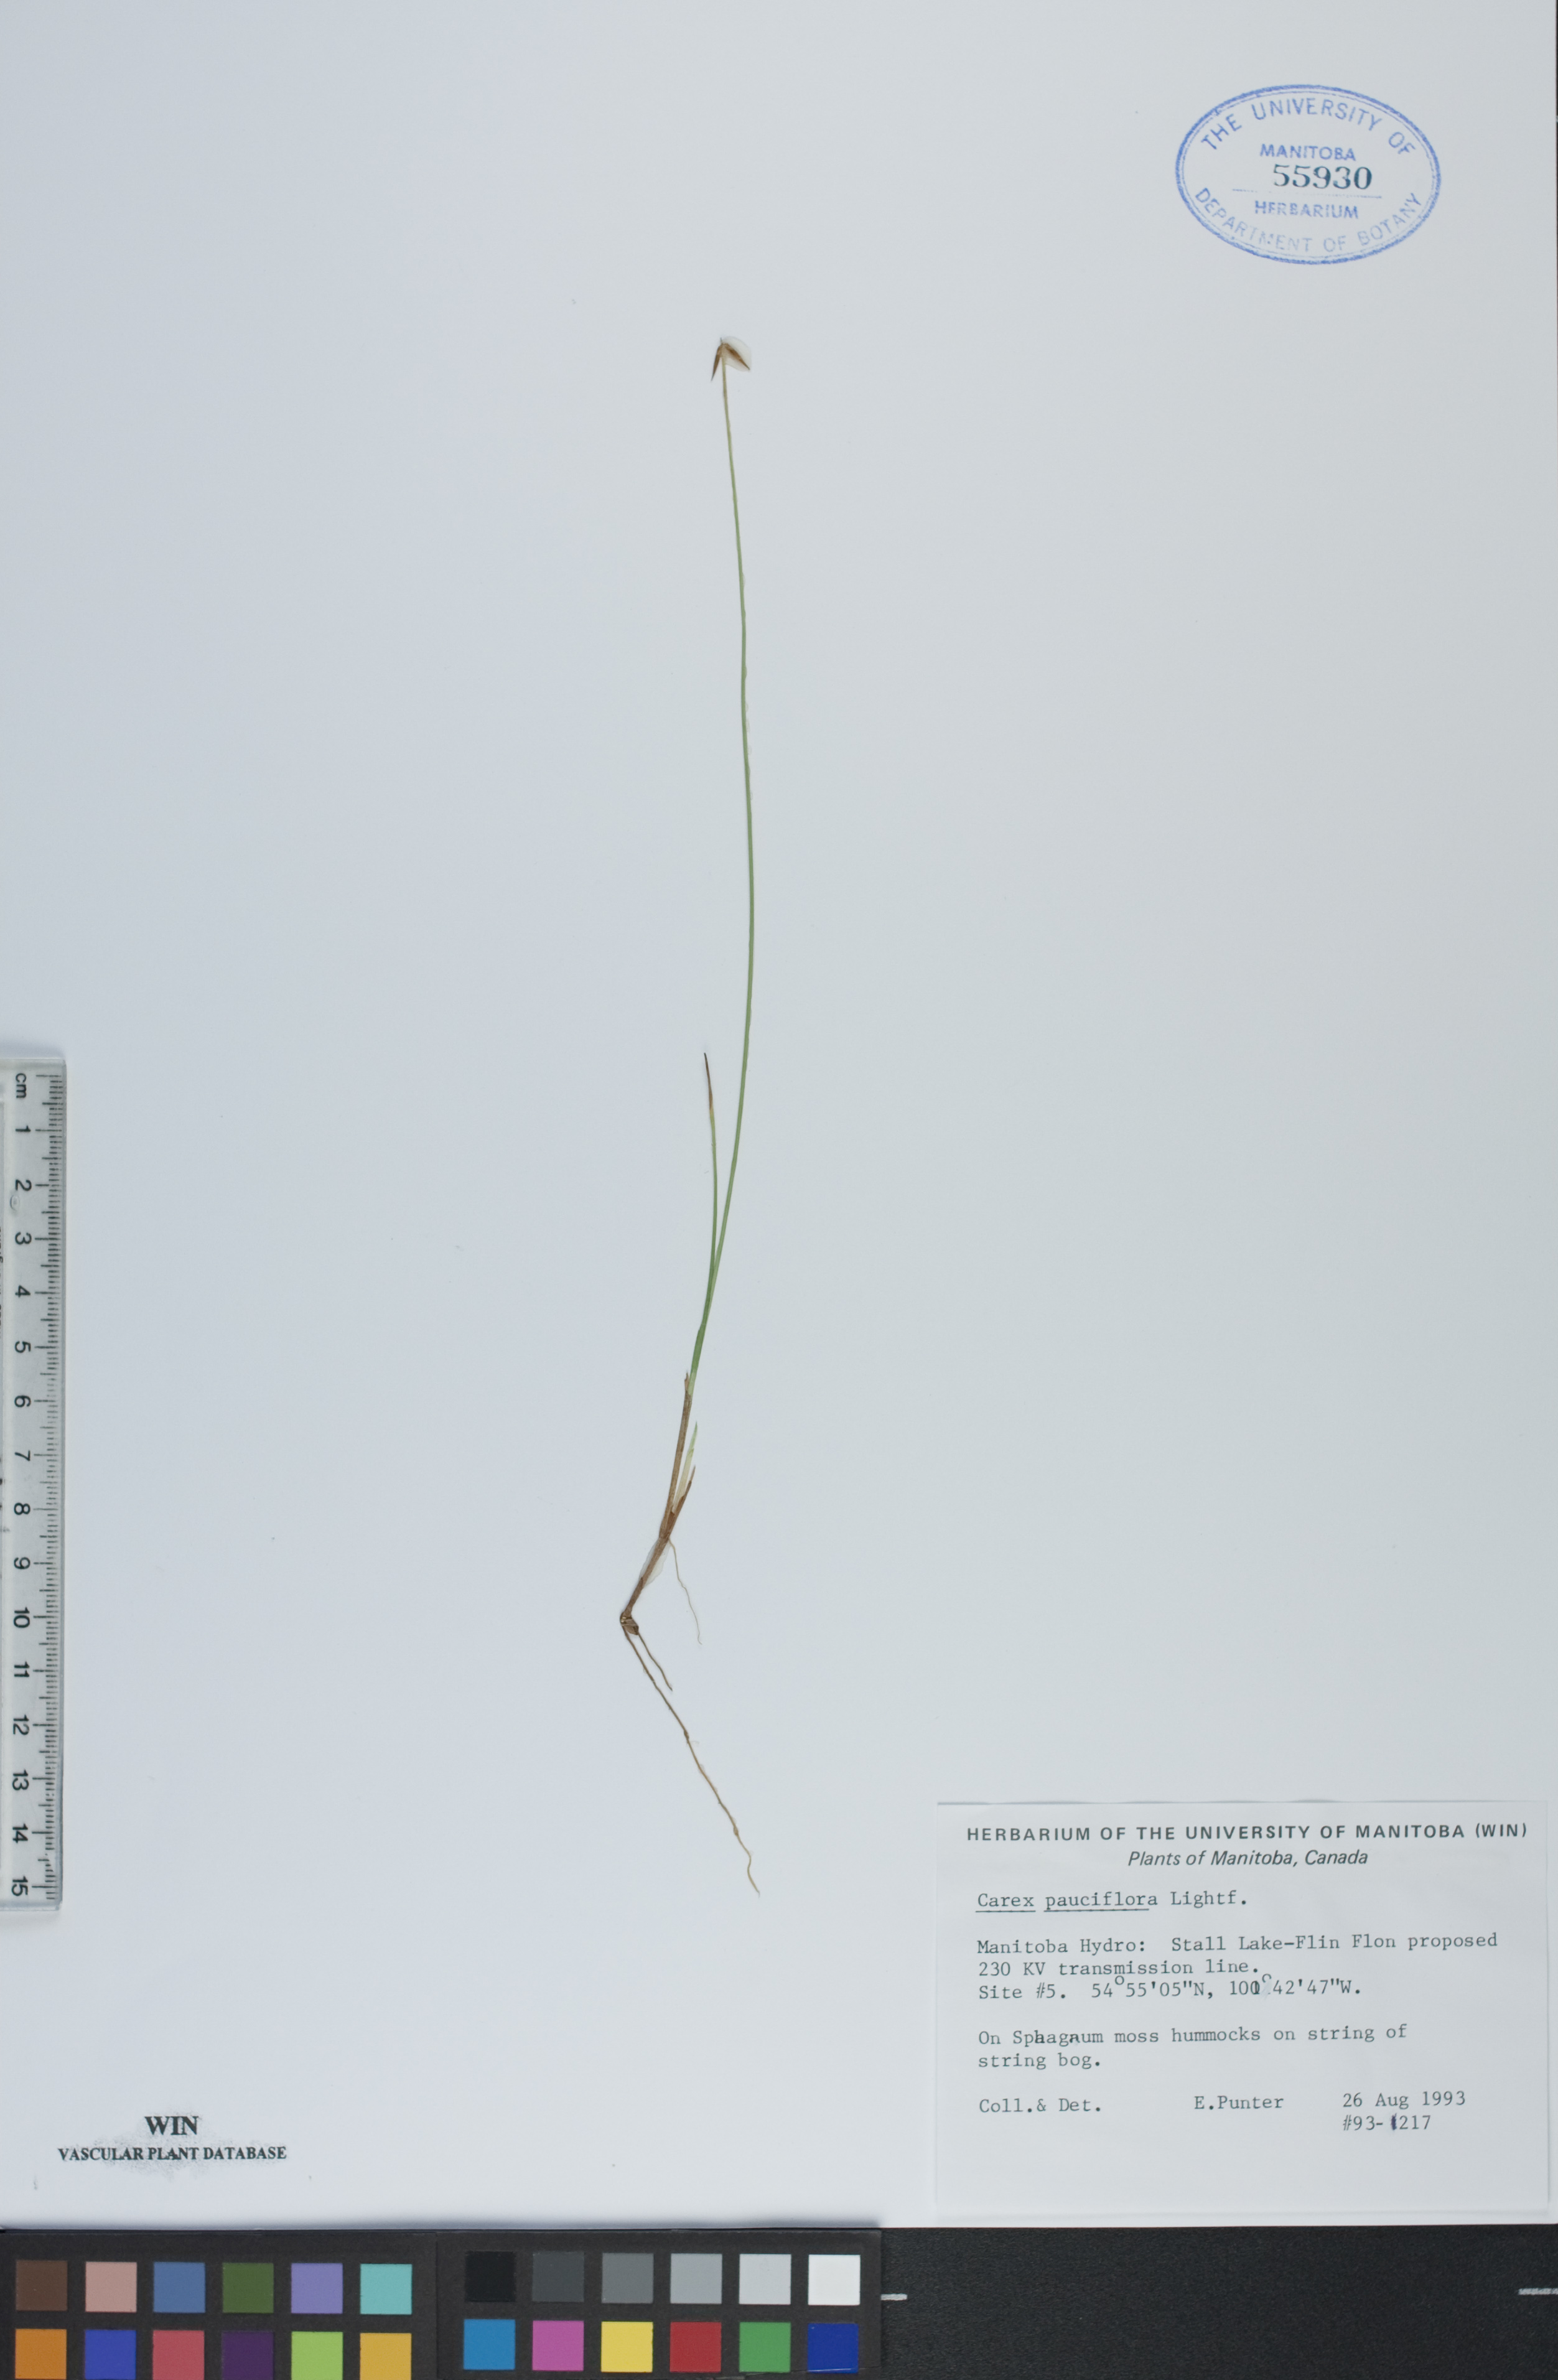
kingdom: Plantae
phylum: Tracheophyta
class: Liliopsida
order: Poales
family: Cyperaceae
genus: Carex
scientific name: Carex pauciflora
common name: Few-flowered sedge
